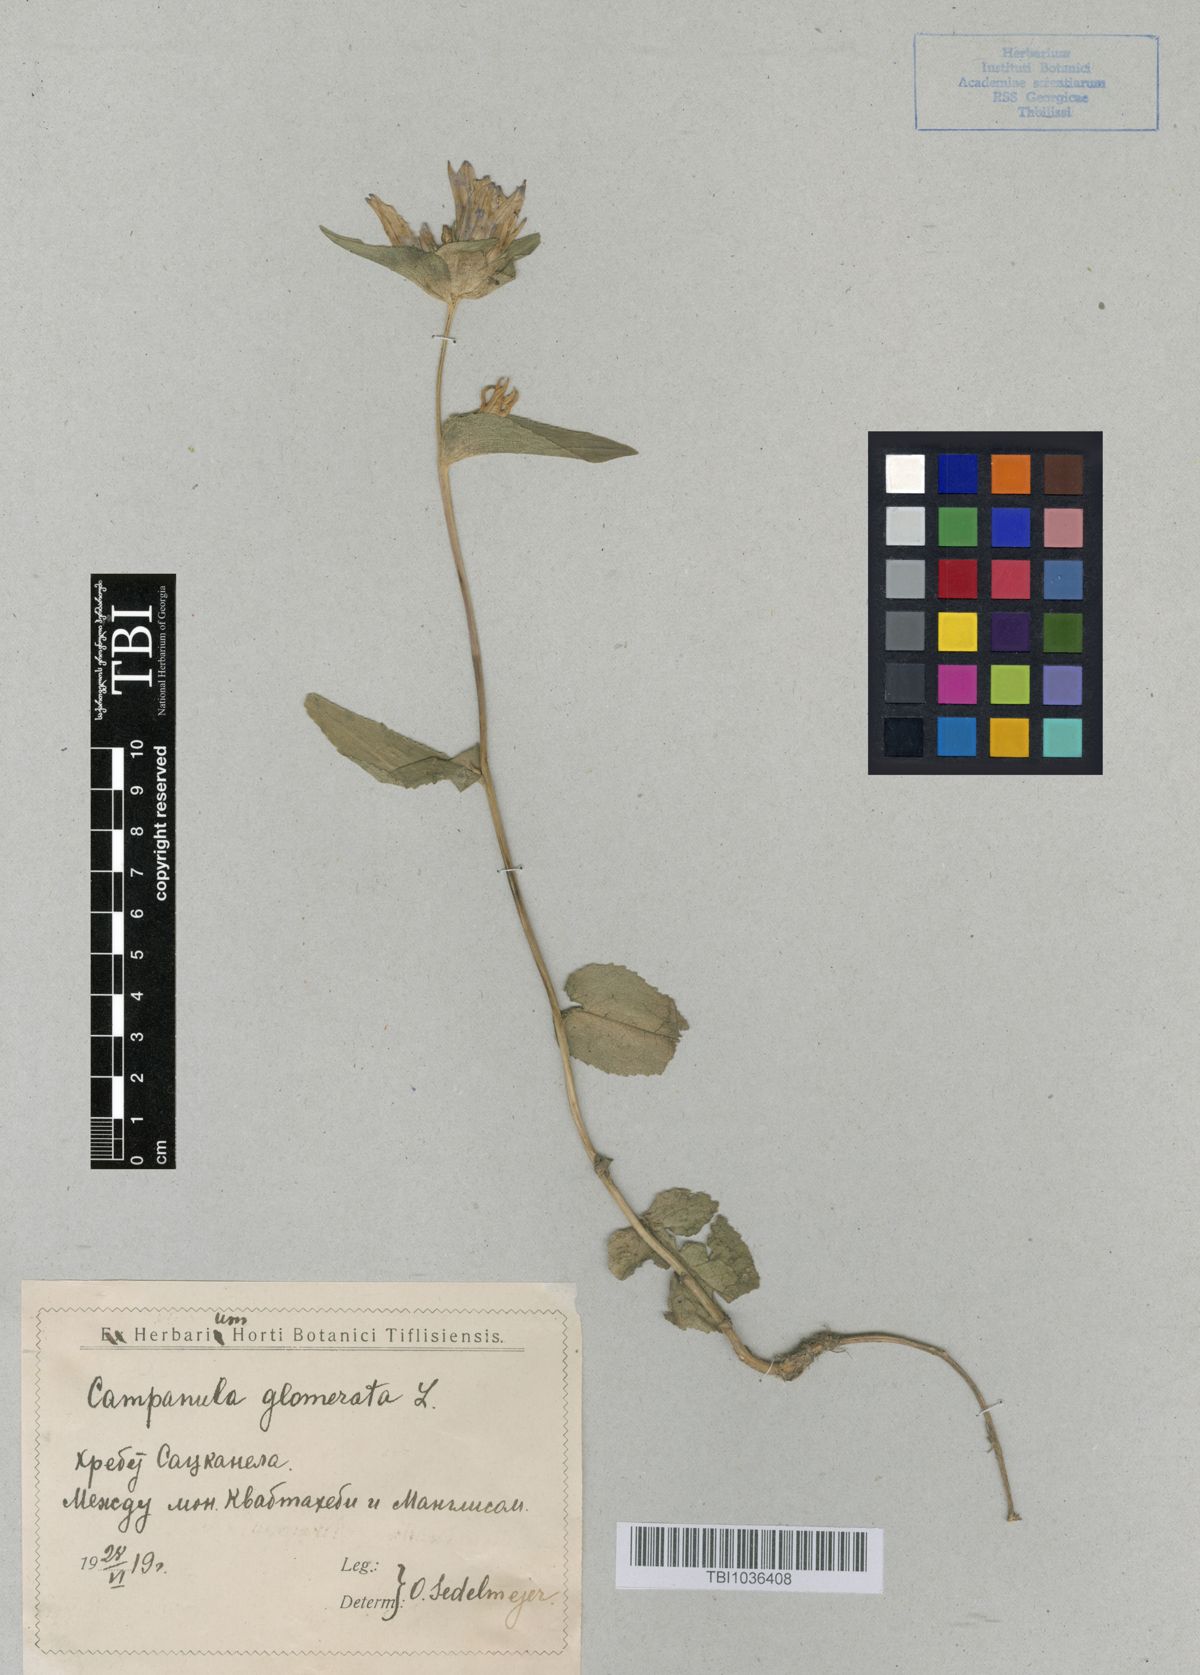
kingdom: Plantae
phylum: Tracheophyta
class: Magnoliopsida
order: Asterales
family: Campanulaceae
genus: Campanula
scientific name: Campanula glomerata
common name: Clustered bellflower
